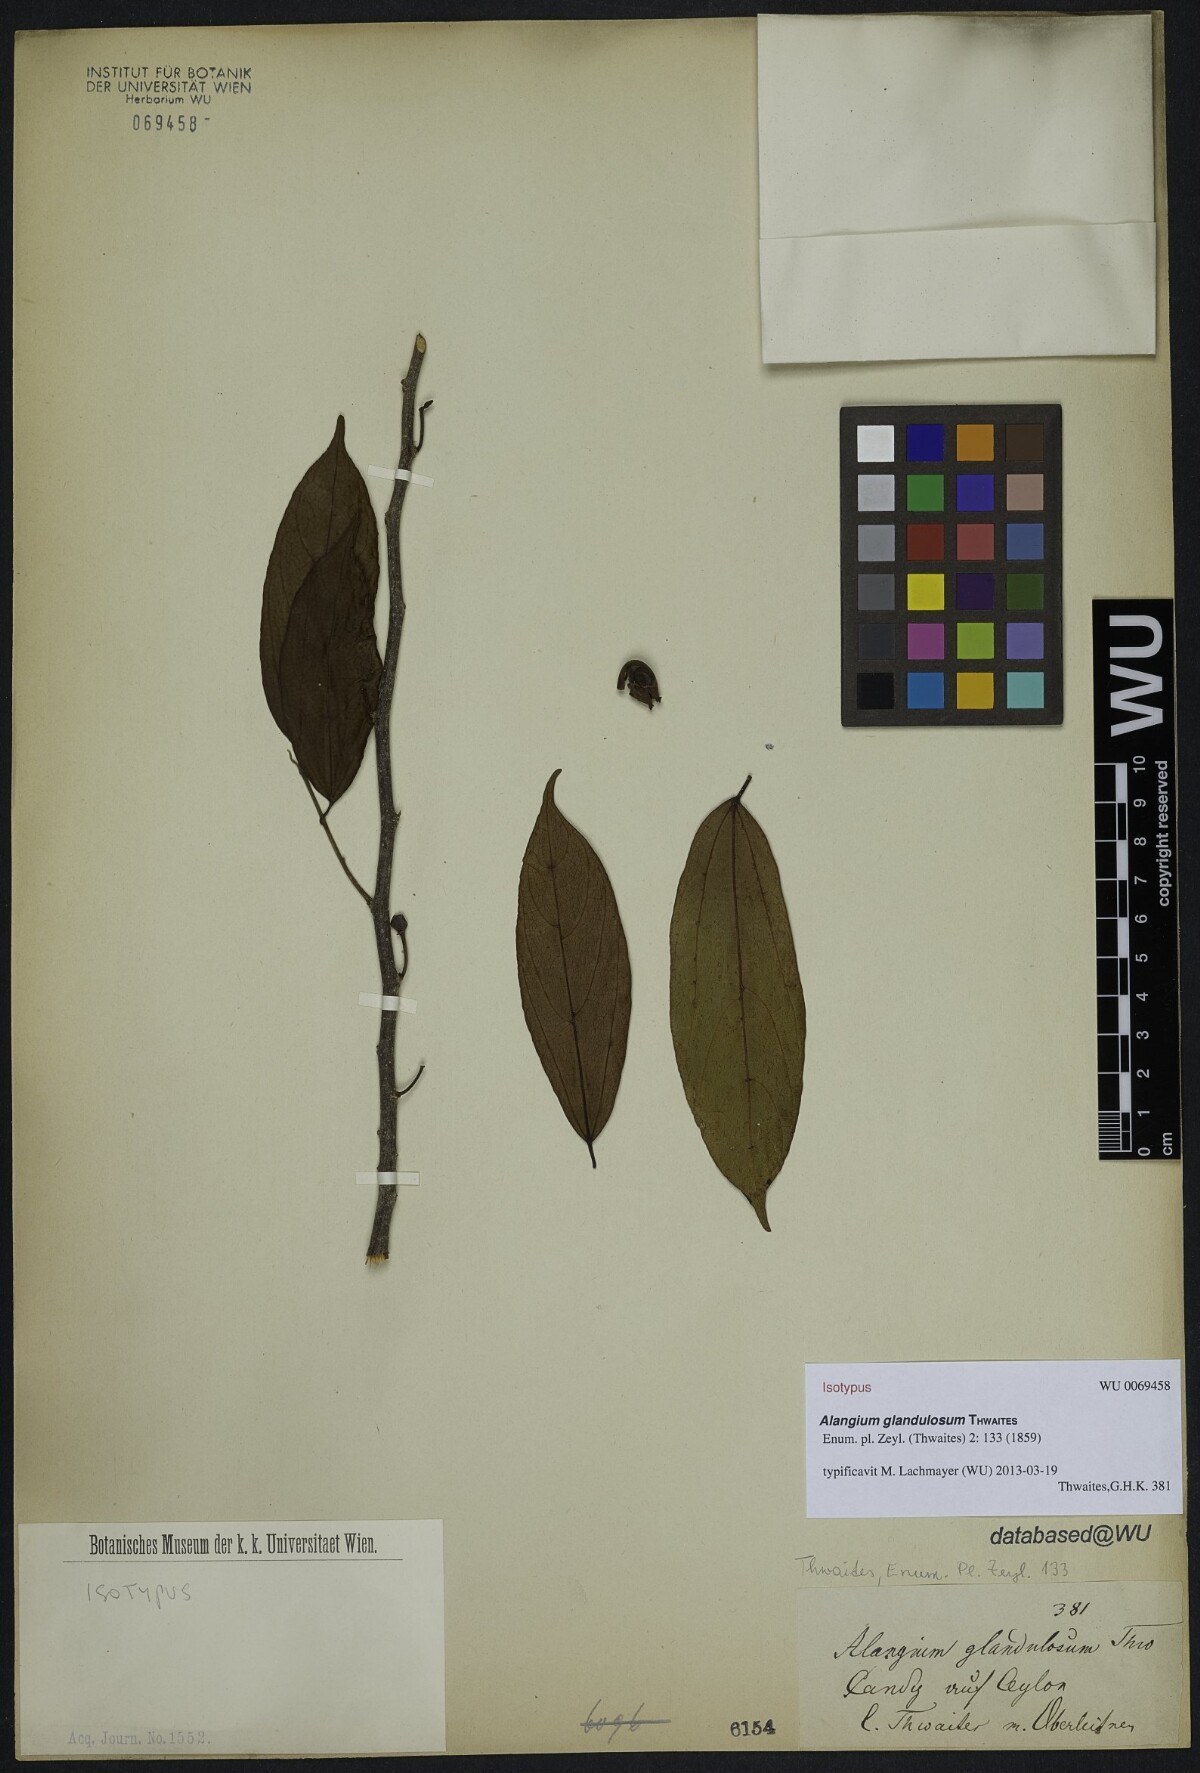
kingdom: Plantae
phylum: Tracheophyta
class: Magnoliopsida
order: Cornales
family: Cornaceae
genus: Alangium
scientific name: Alangium glandulosum
